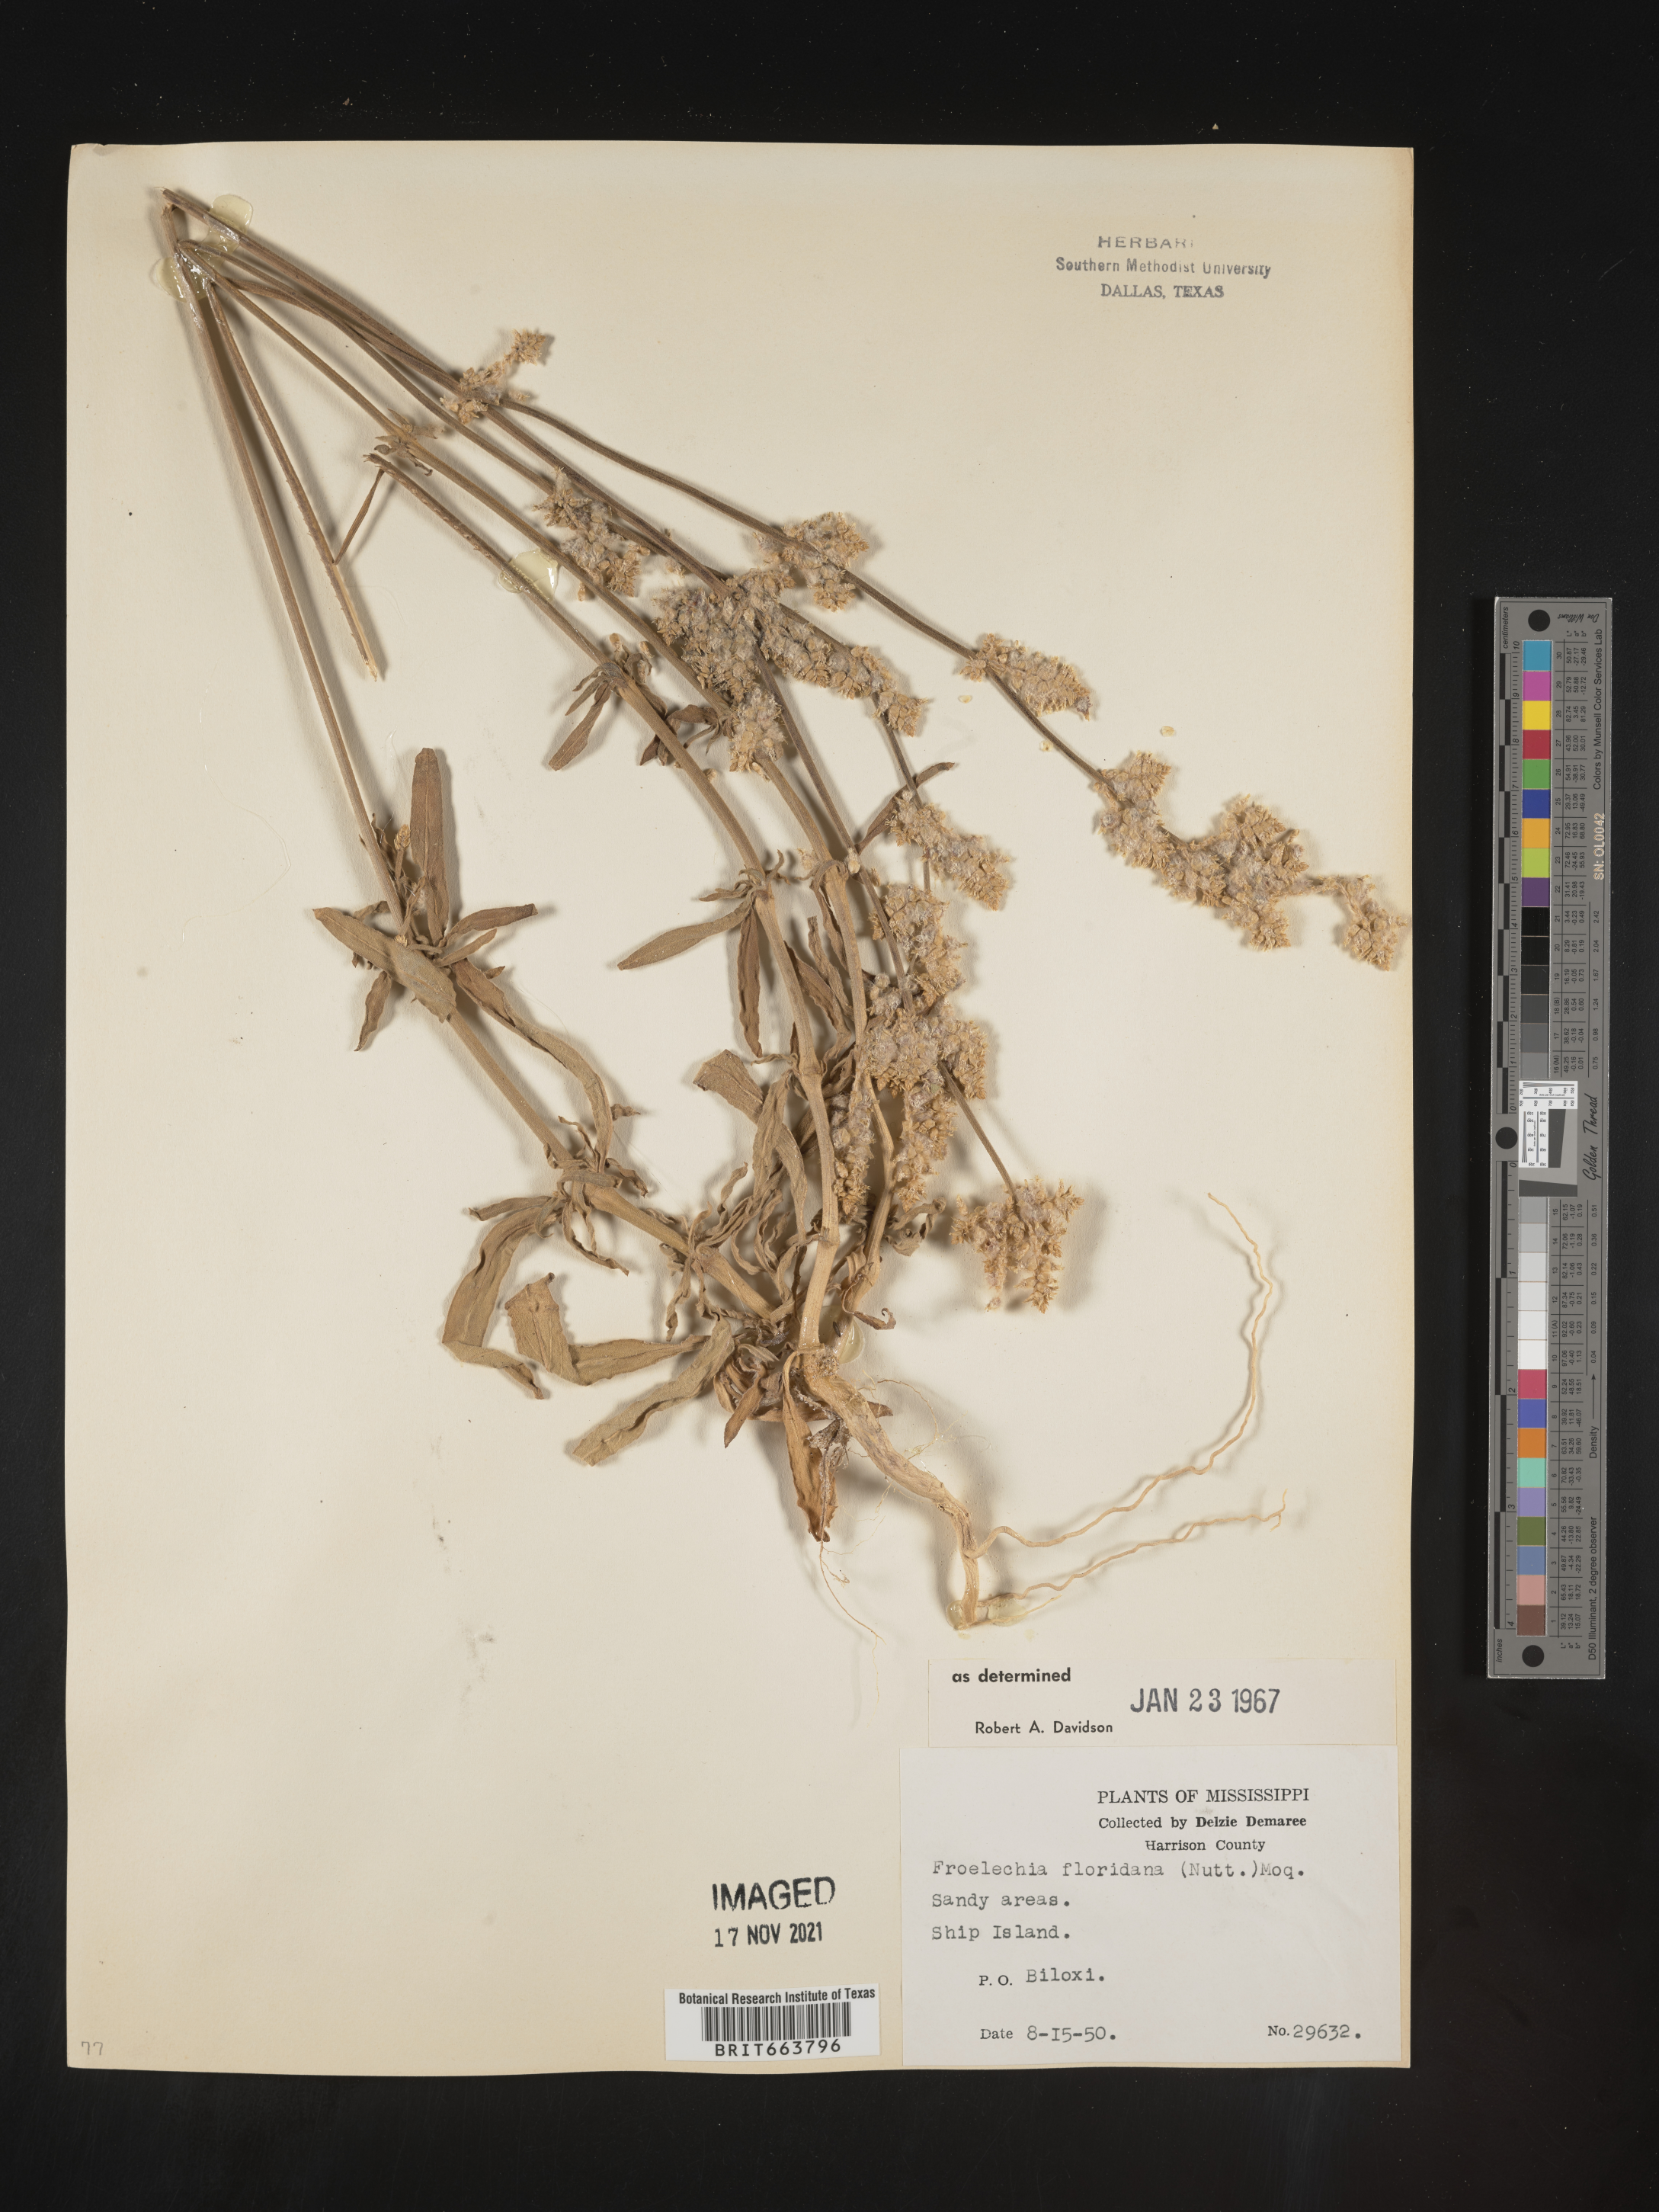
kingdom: Plantae
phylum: Tracheophyta
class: Magnoliopsida
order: Caryophyllales
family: Amaranthaceae
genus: Froelichia
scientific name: Froelichia floridana
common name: Florida snake-cotton
